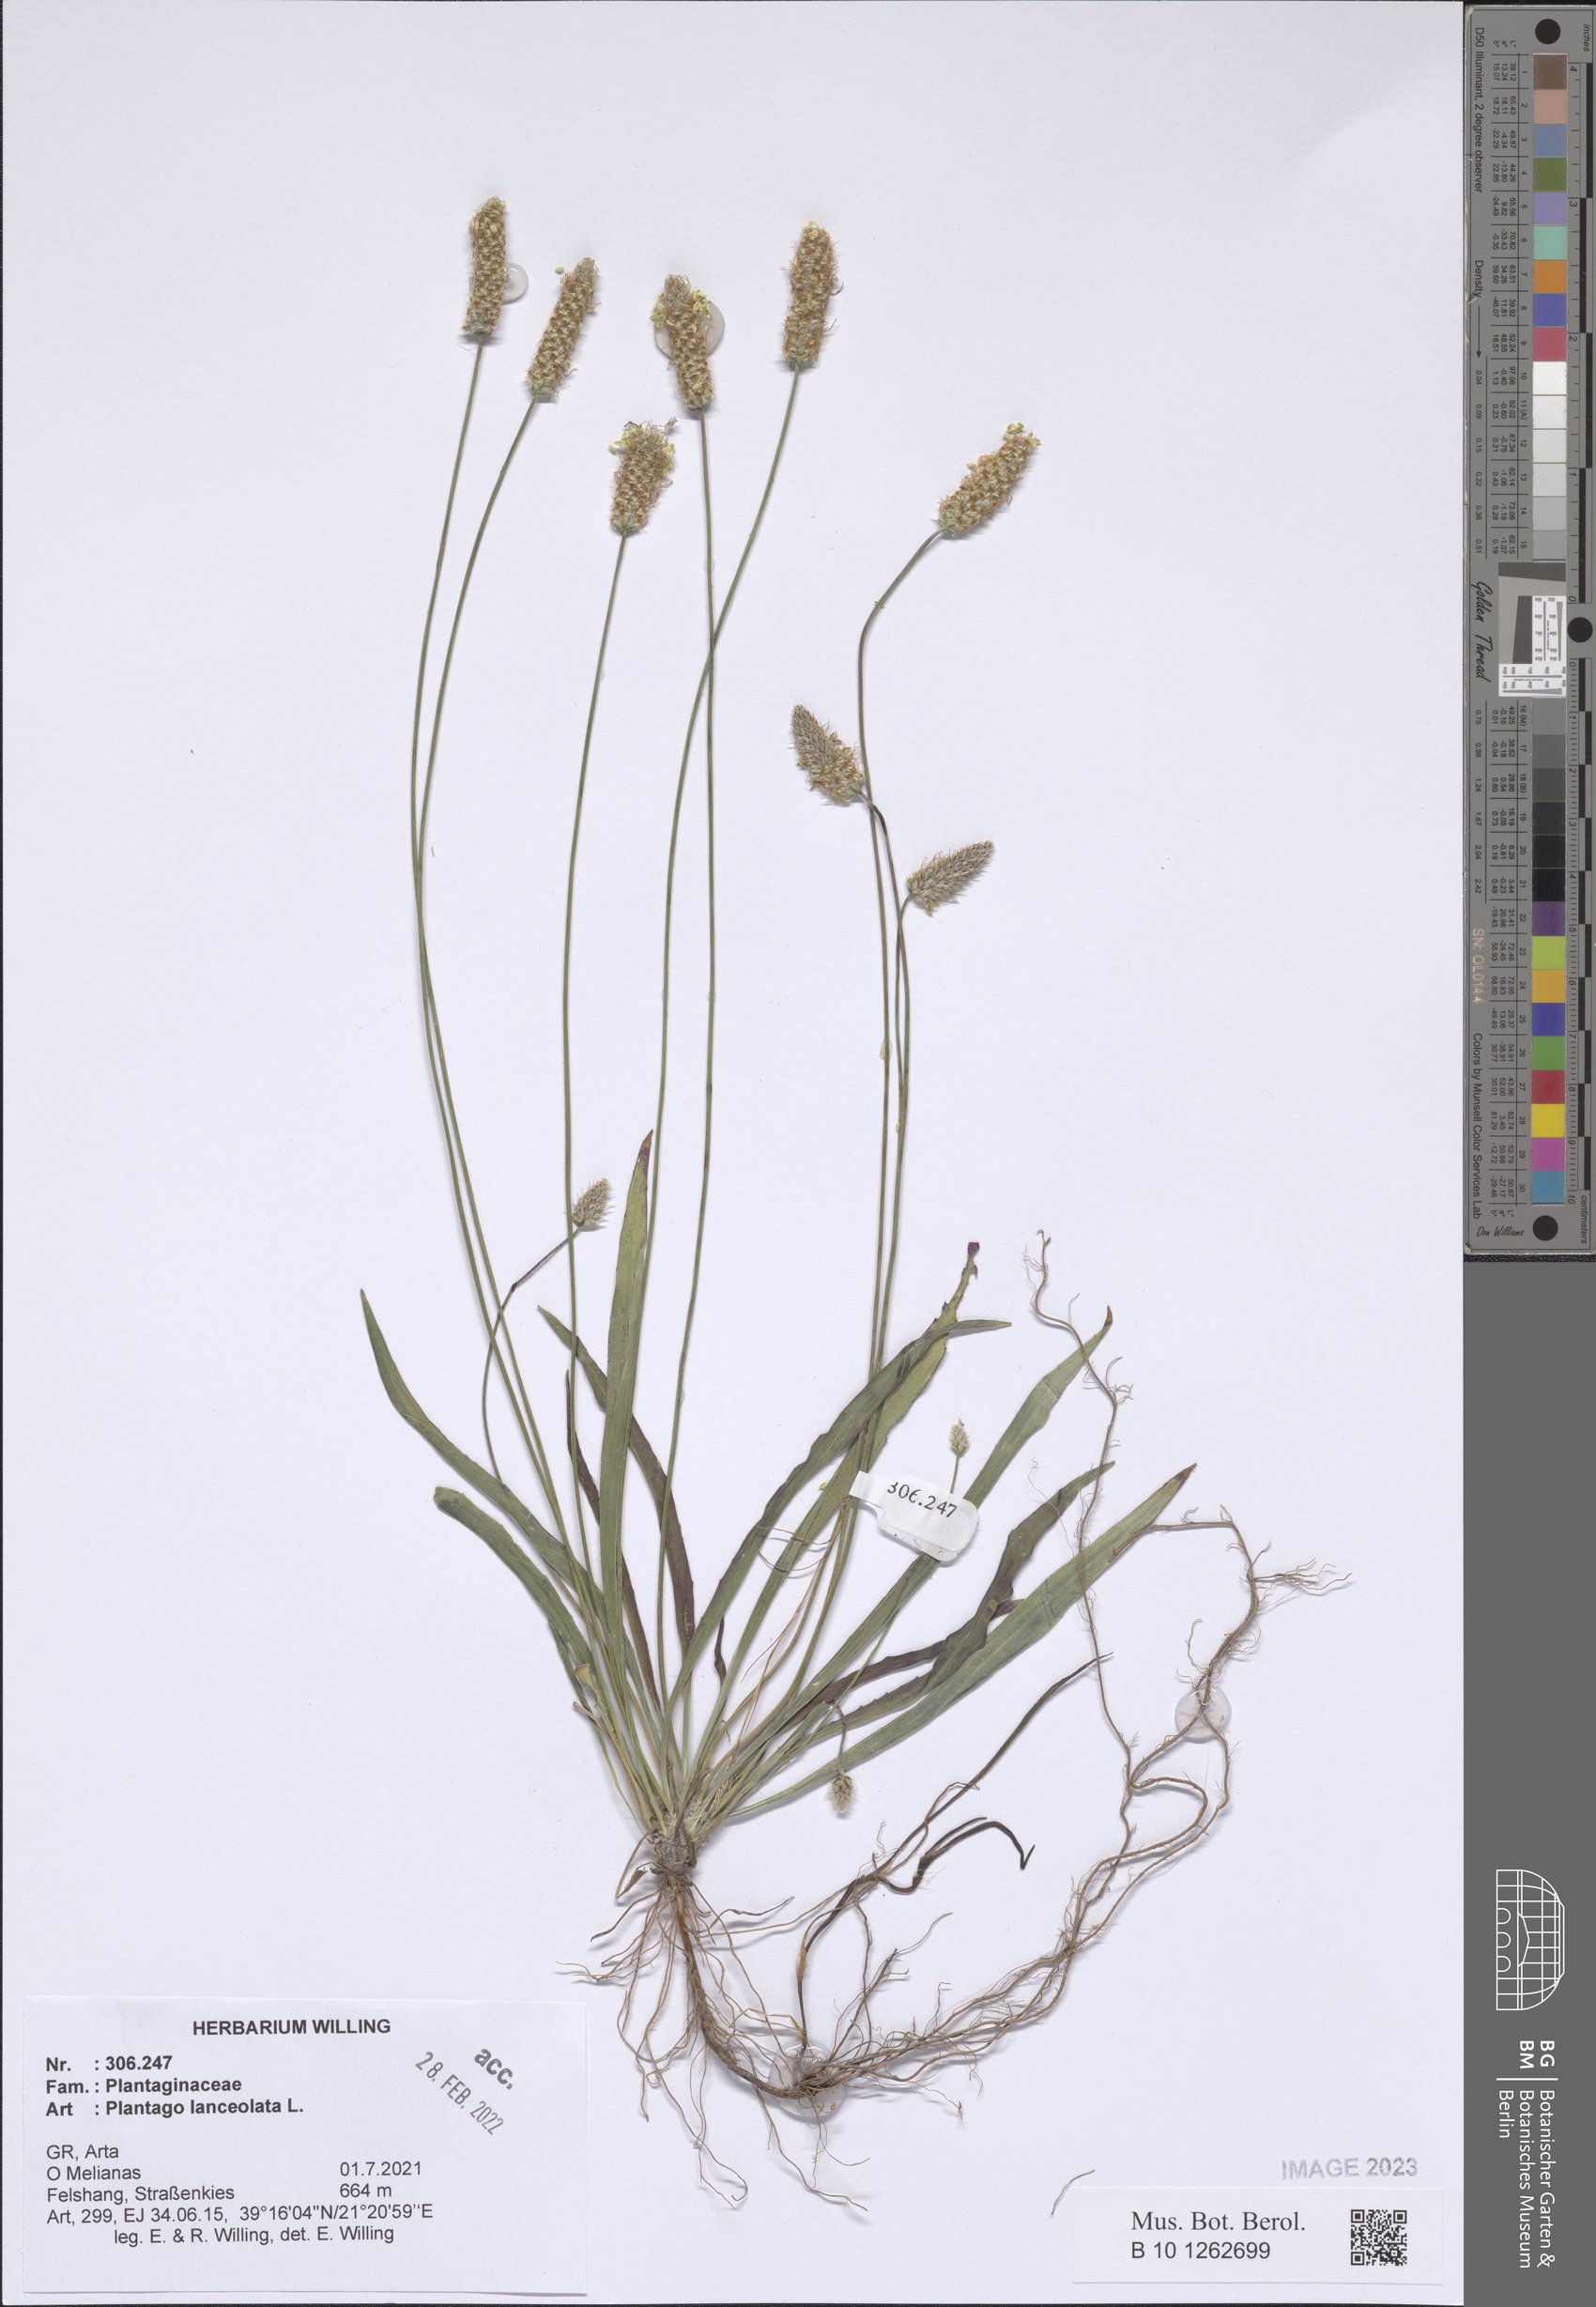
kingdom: Plantae
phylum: Tracheophyta
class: Magnoliopsida
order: Lamiales
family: Plantaginaceae
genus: Plantago
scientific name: Plantago lanceolata
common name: Ribwort plantain
